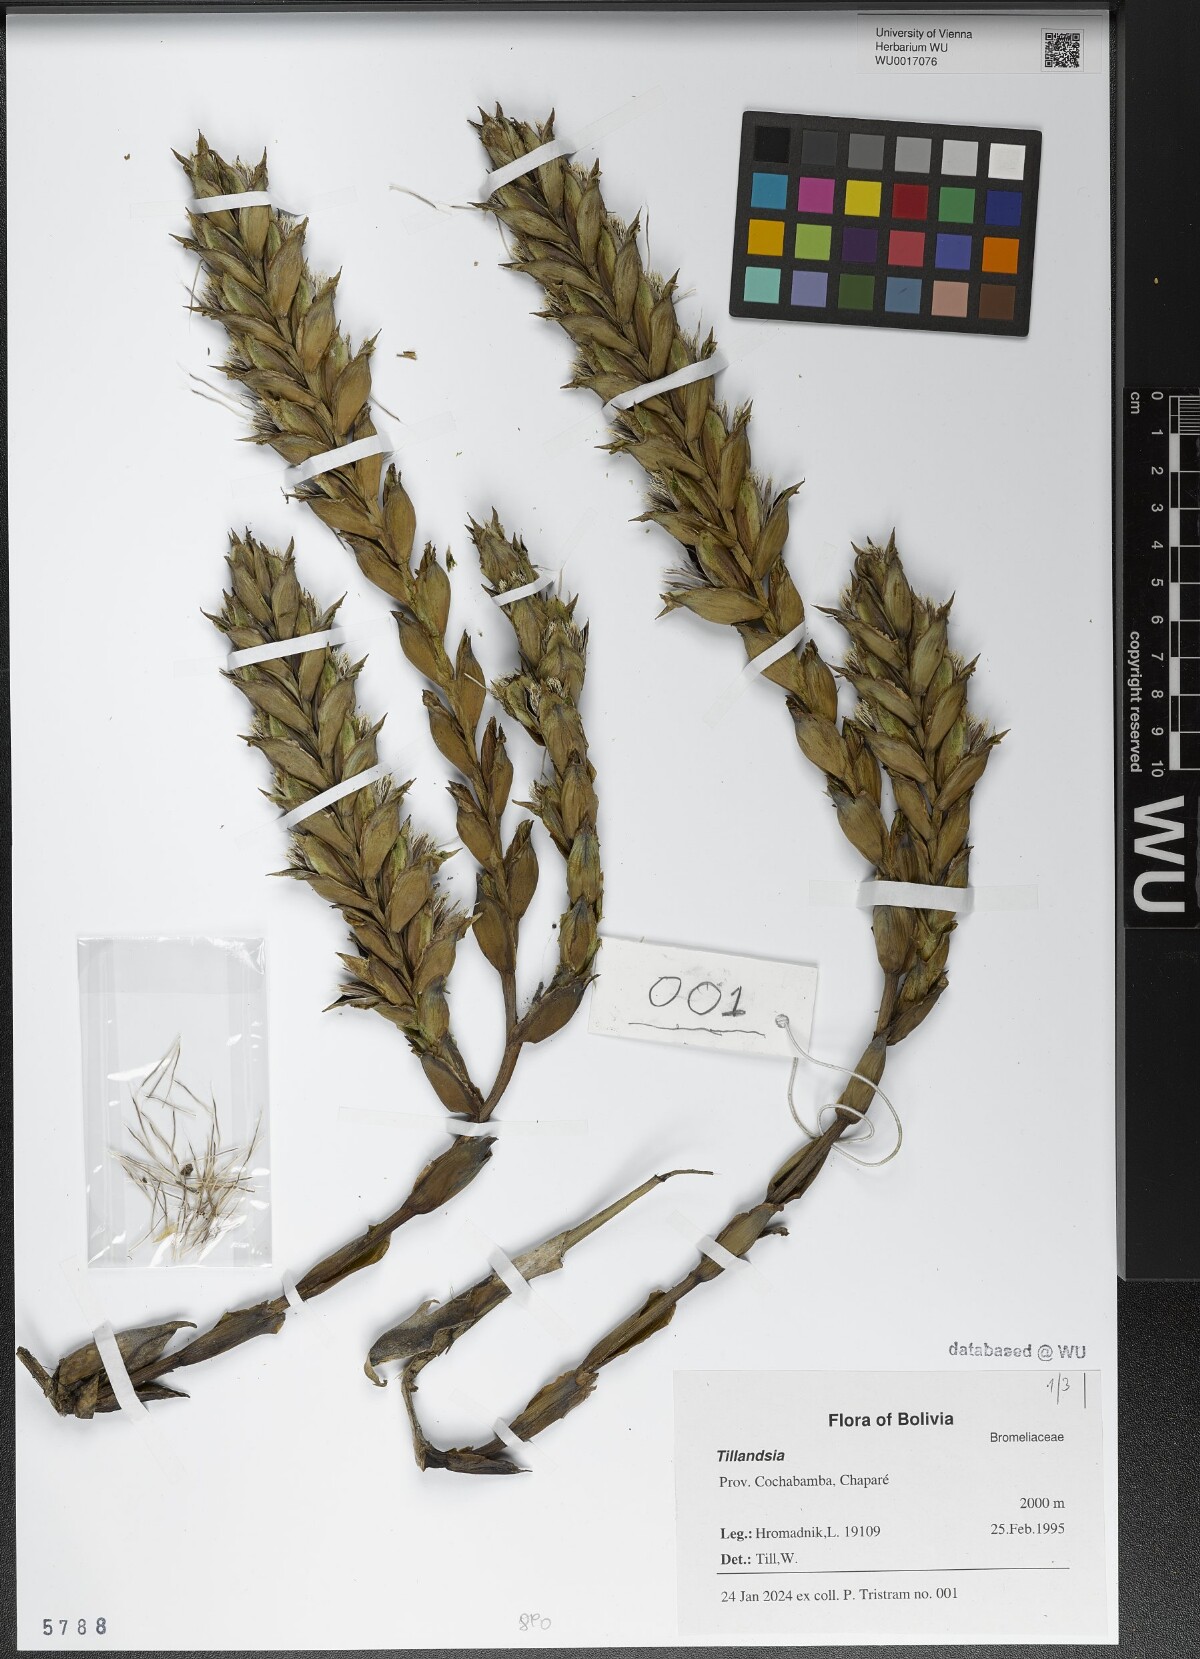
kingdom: Plantae
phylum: Tracheophyta
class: Liliopsida
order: Poales
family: Bromeliaceae
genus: Tillandsia
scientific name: Tillandsia
